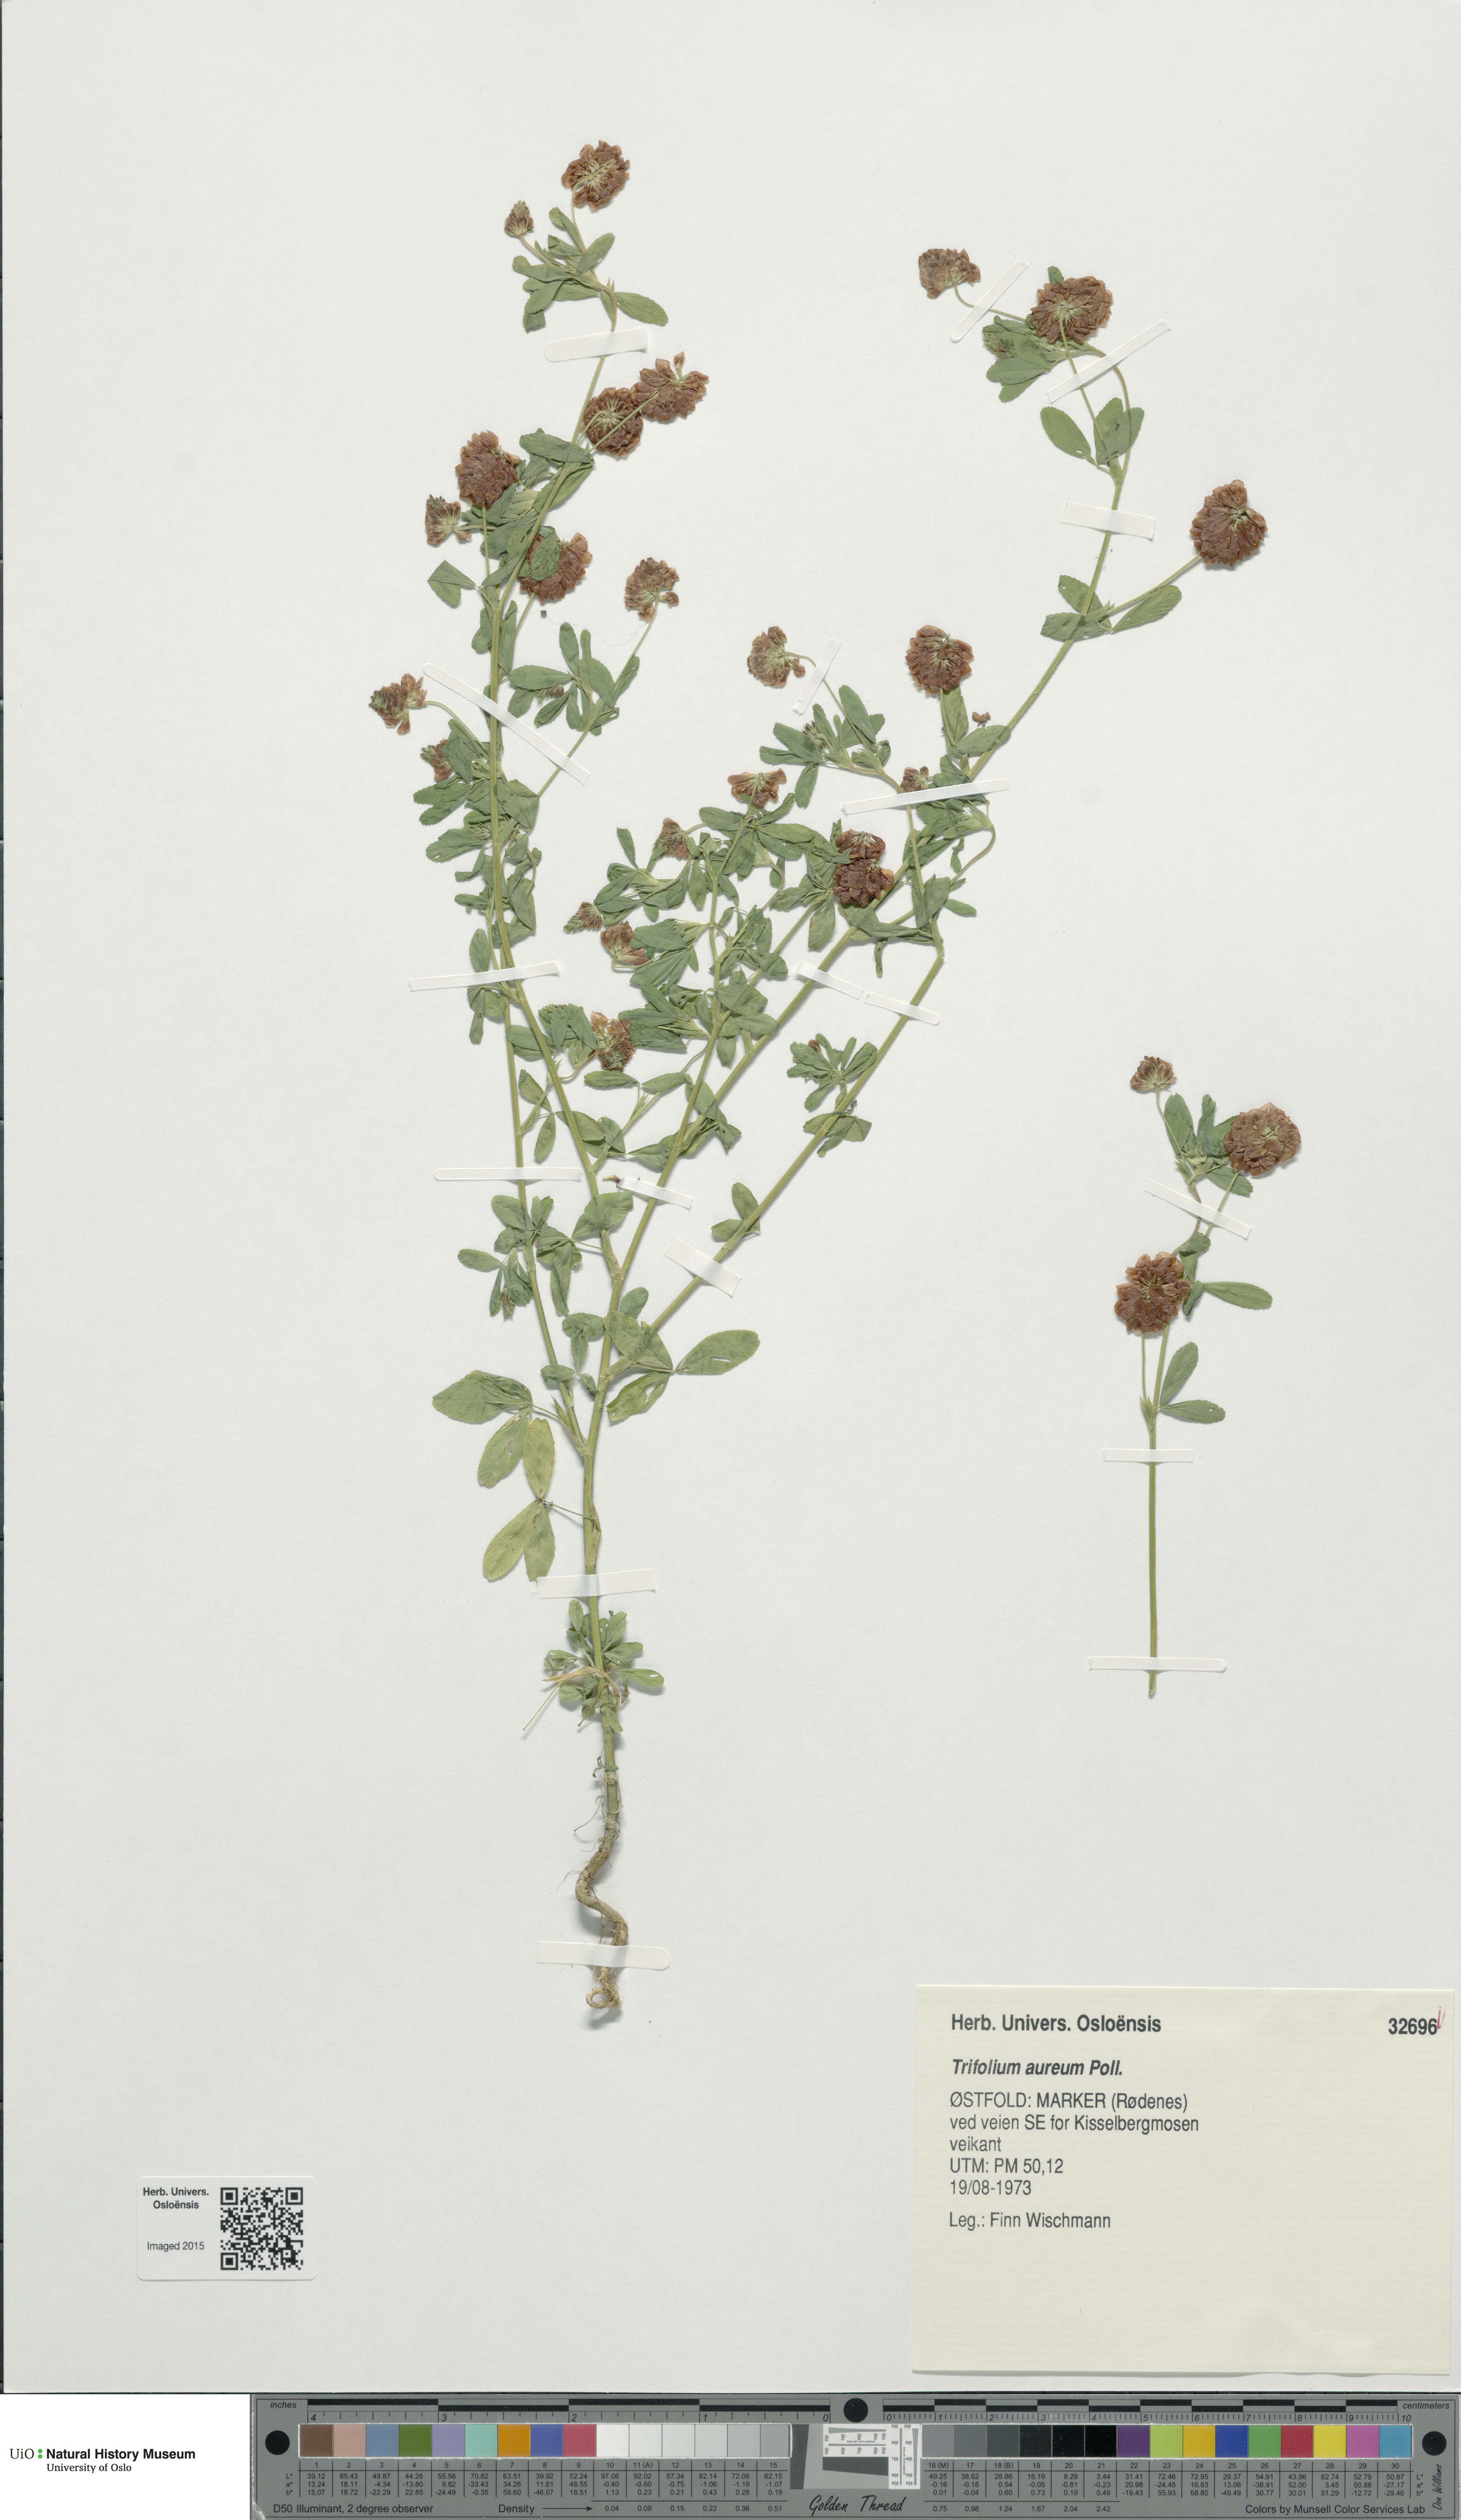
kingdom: Plantae
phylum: Tracheophyta
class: Magnoliopsida
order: Fabales
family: Fabaceae
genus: Trifolium
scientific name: Trifolium aureum
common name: Golden clover
